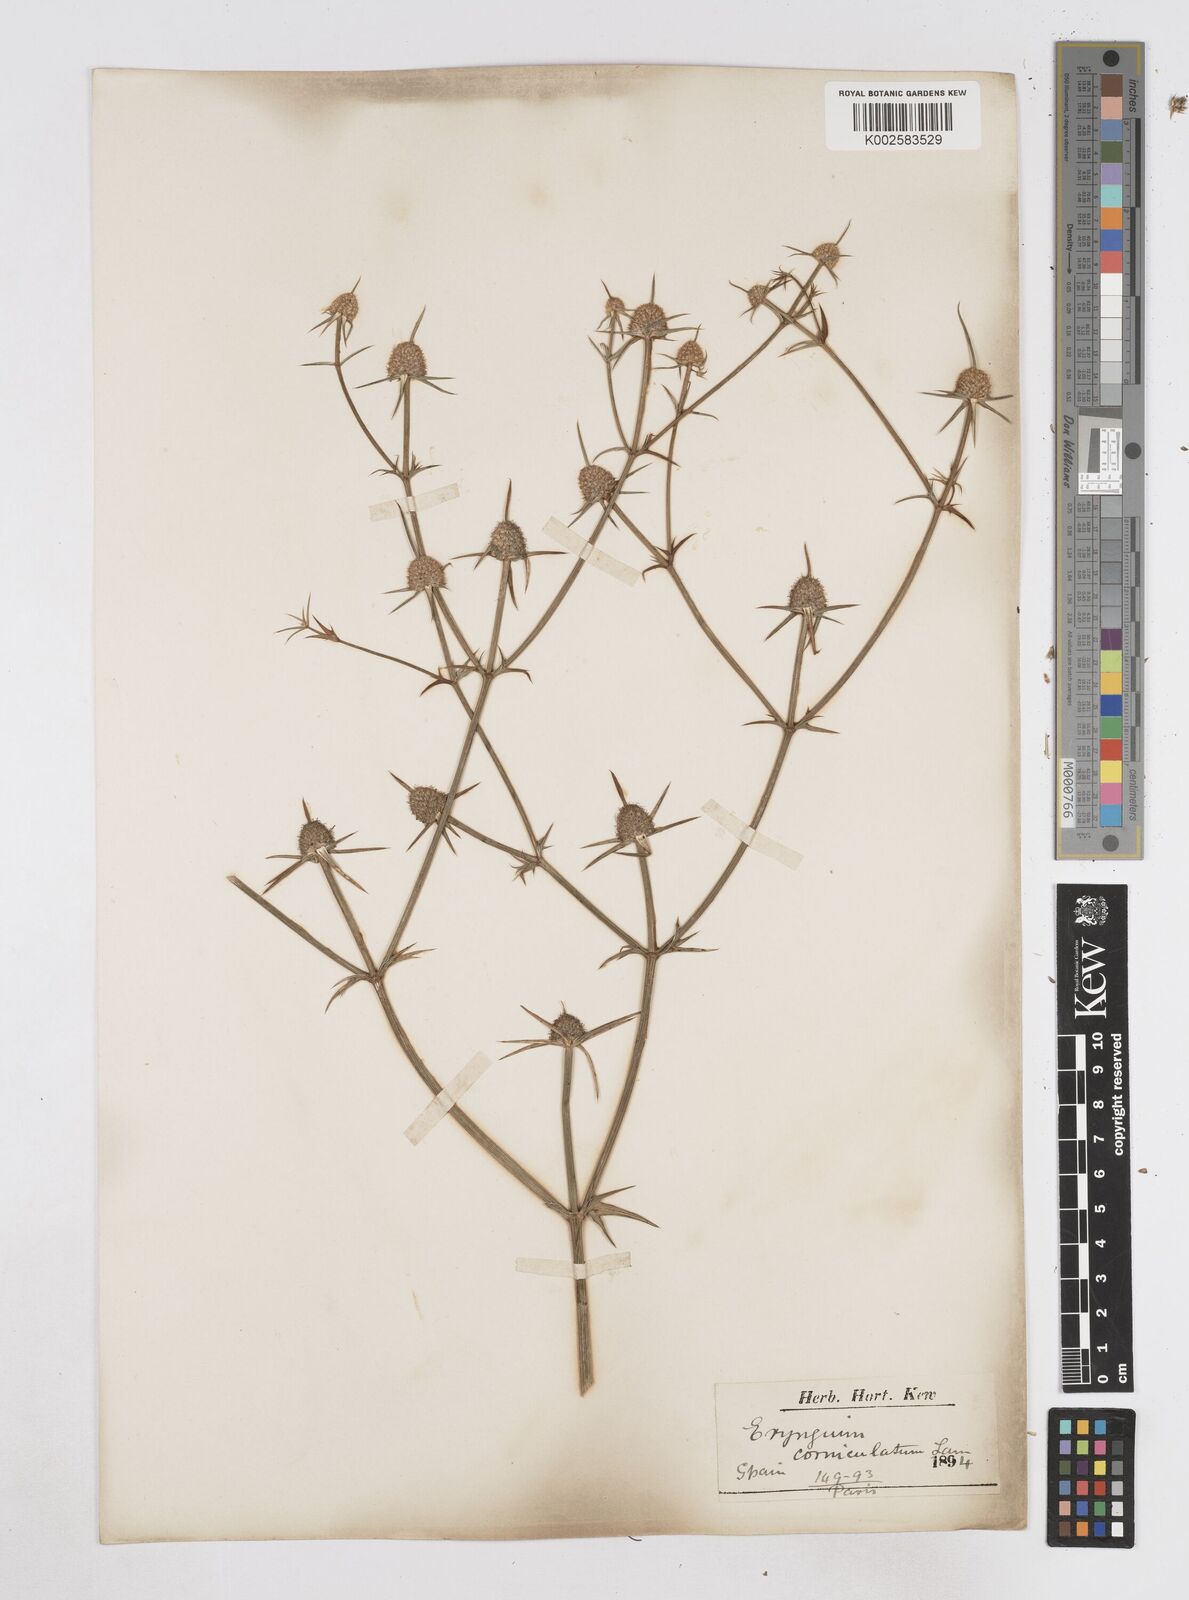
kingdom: Plantae
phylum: Tracheophyta
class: Magnoliopsida
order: Apiales
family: Apiaceae
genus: Eryngium
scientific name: Eryngium corniculatum
